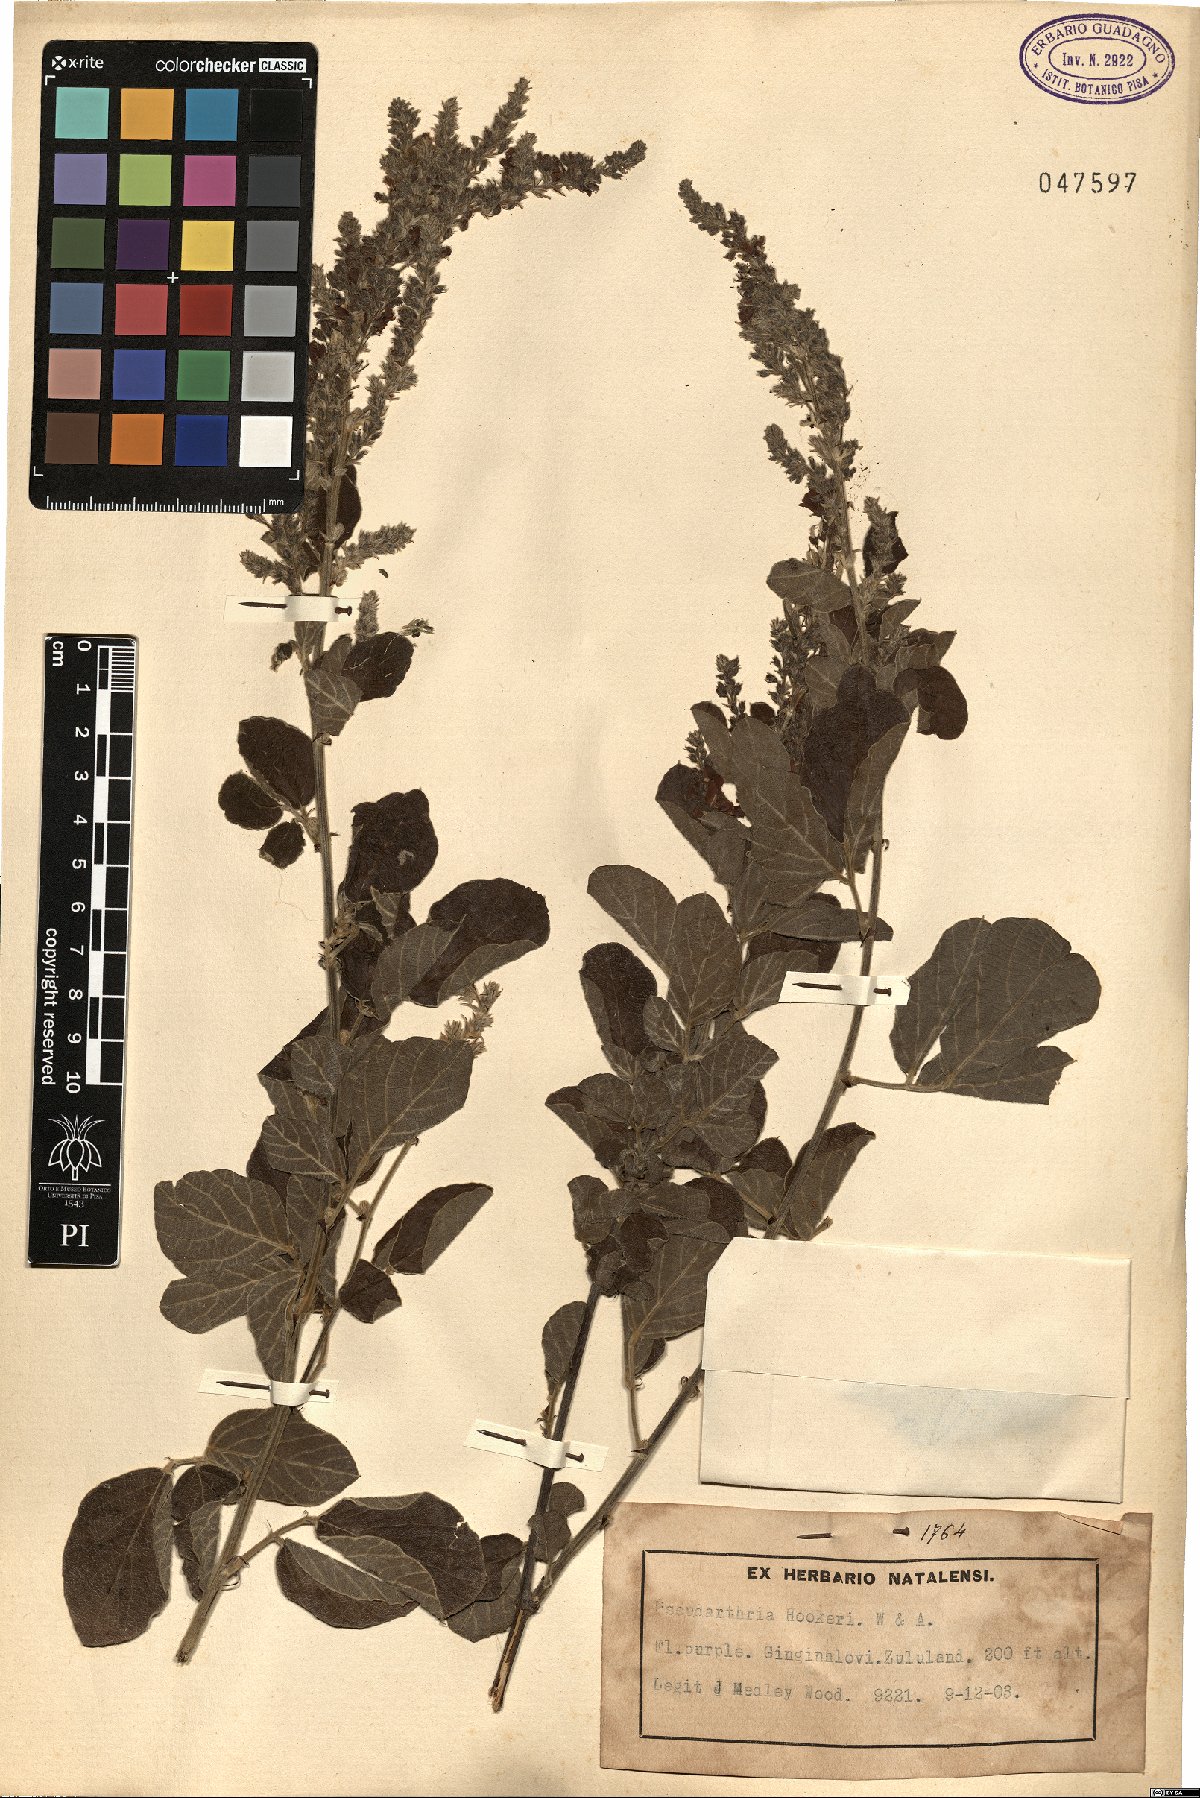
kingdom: Plantae
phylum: Tracheophyta
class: Magnoliopsida
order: Fabales
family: Fabaceae
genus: Pseudarthria
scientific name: Pseudarthria hookeri
